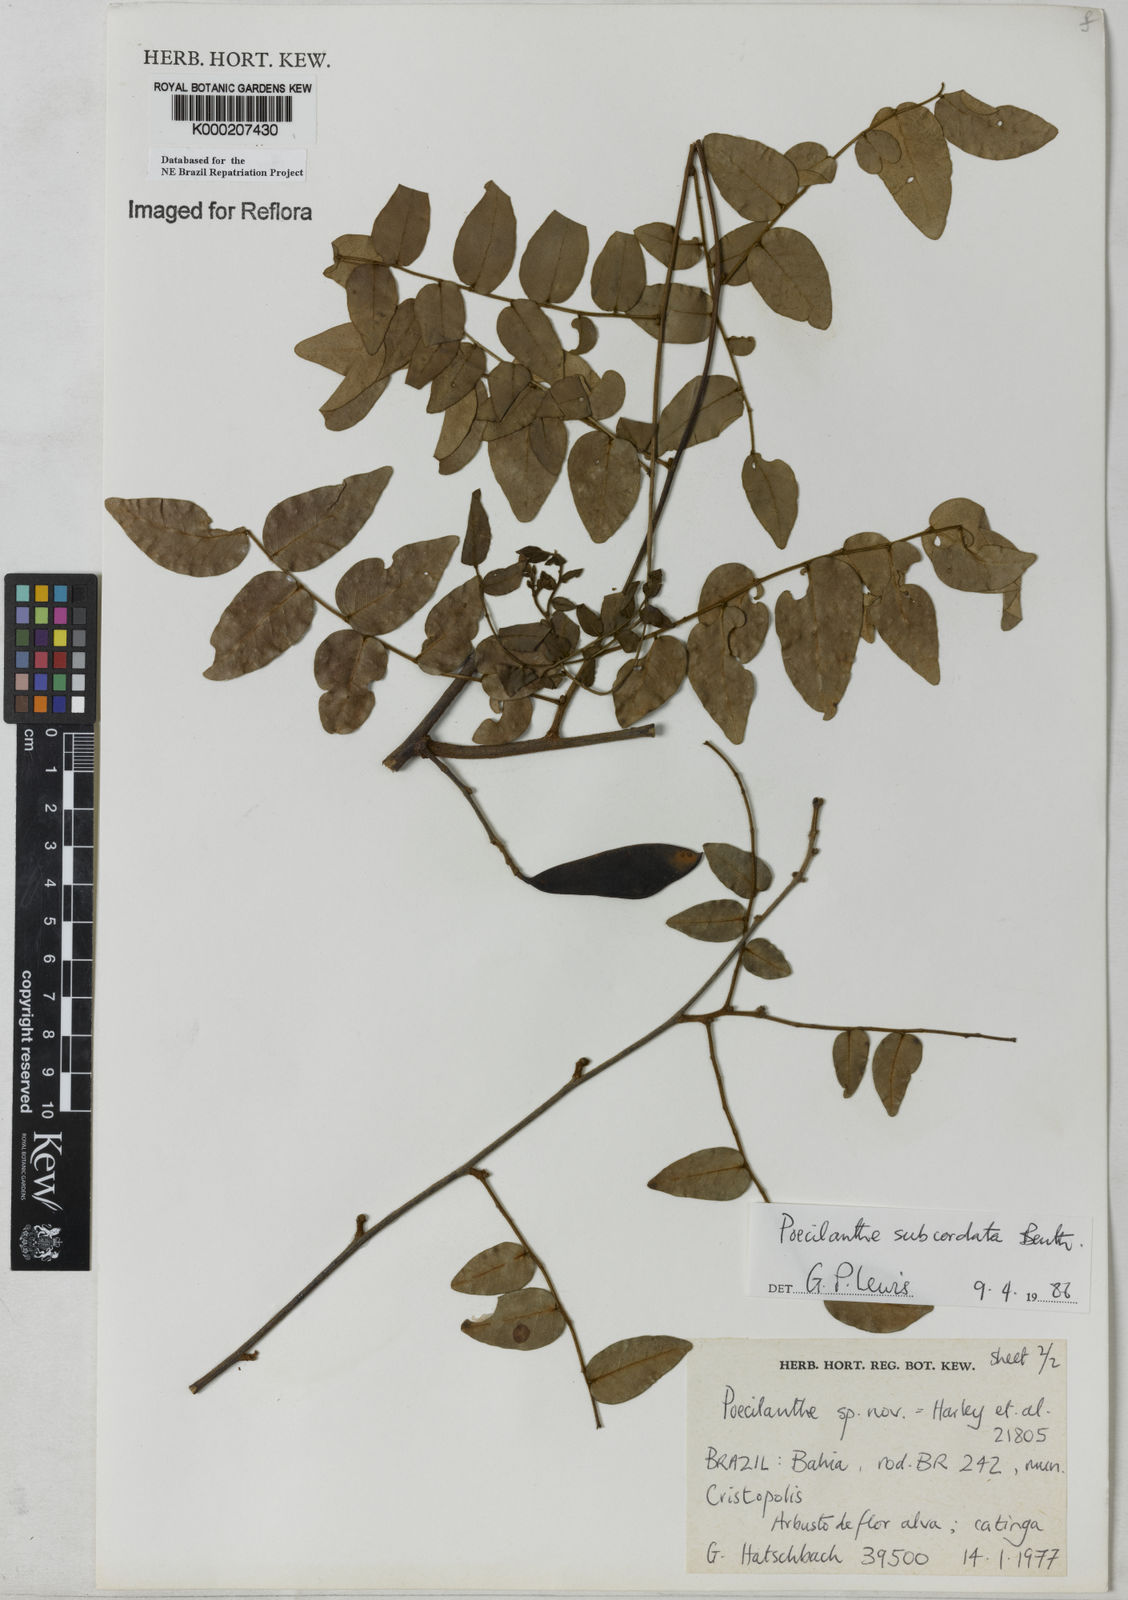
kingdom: Plantae
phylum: Tracheophyta
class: Magnoliopsida
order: Fabales
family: Fabaceae
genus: Poecilanthe
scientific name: Poecilanthe subcordata
